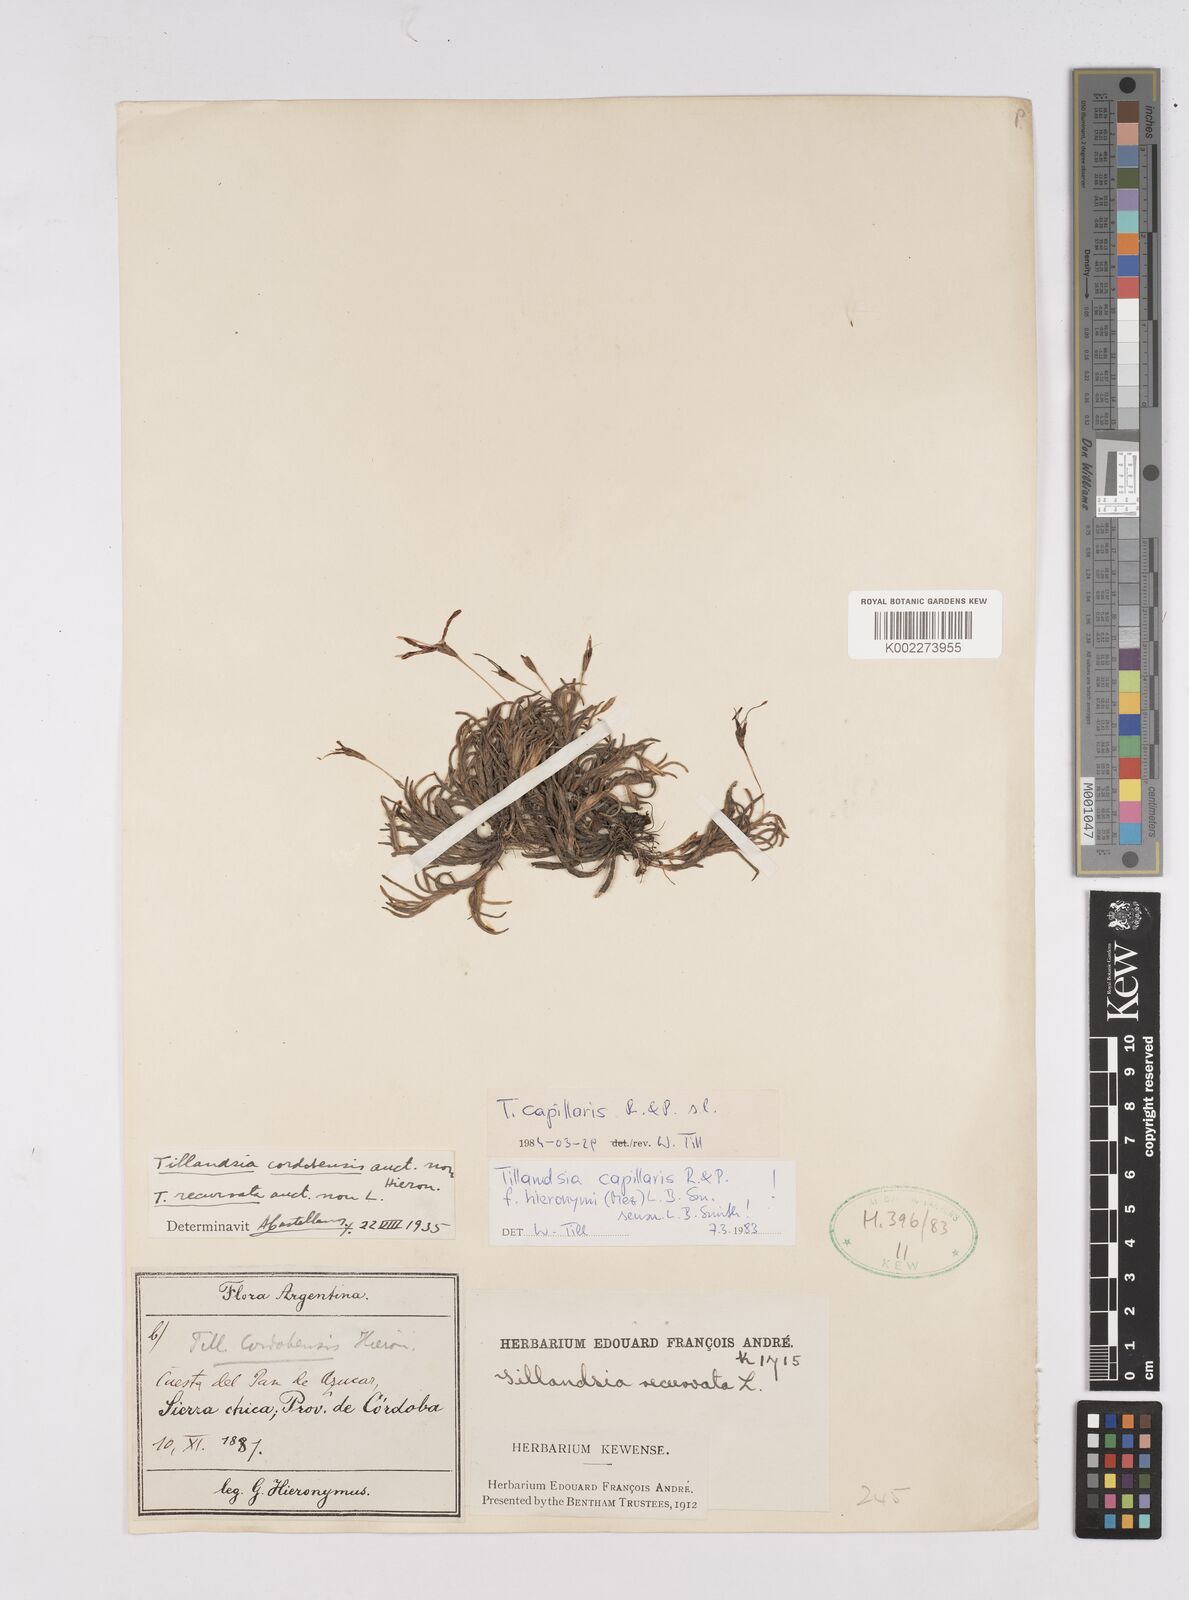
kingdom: Plantae
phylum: Tracheophyta
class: Liliopsida
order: Poales
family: Bromeliaceae
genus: Tillandsia
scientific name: Tillandsia capillaris
